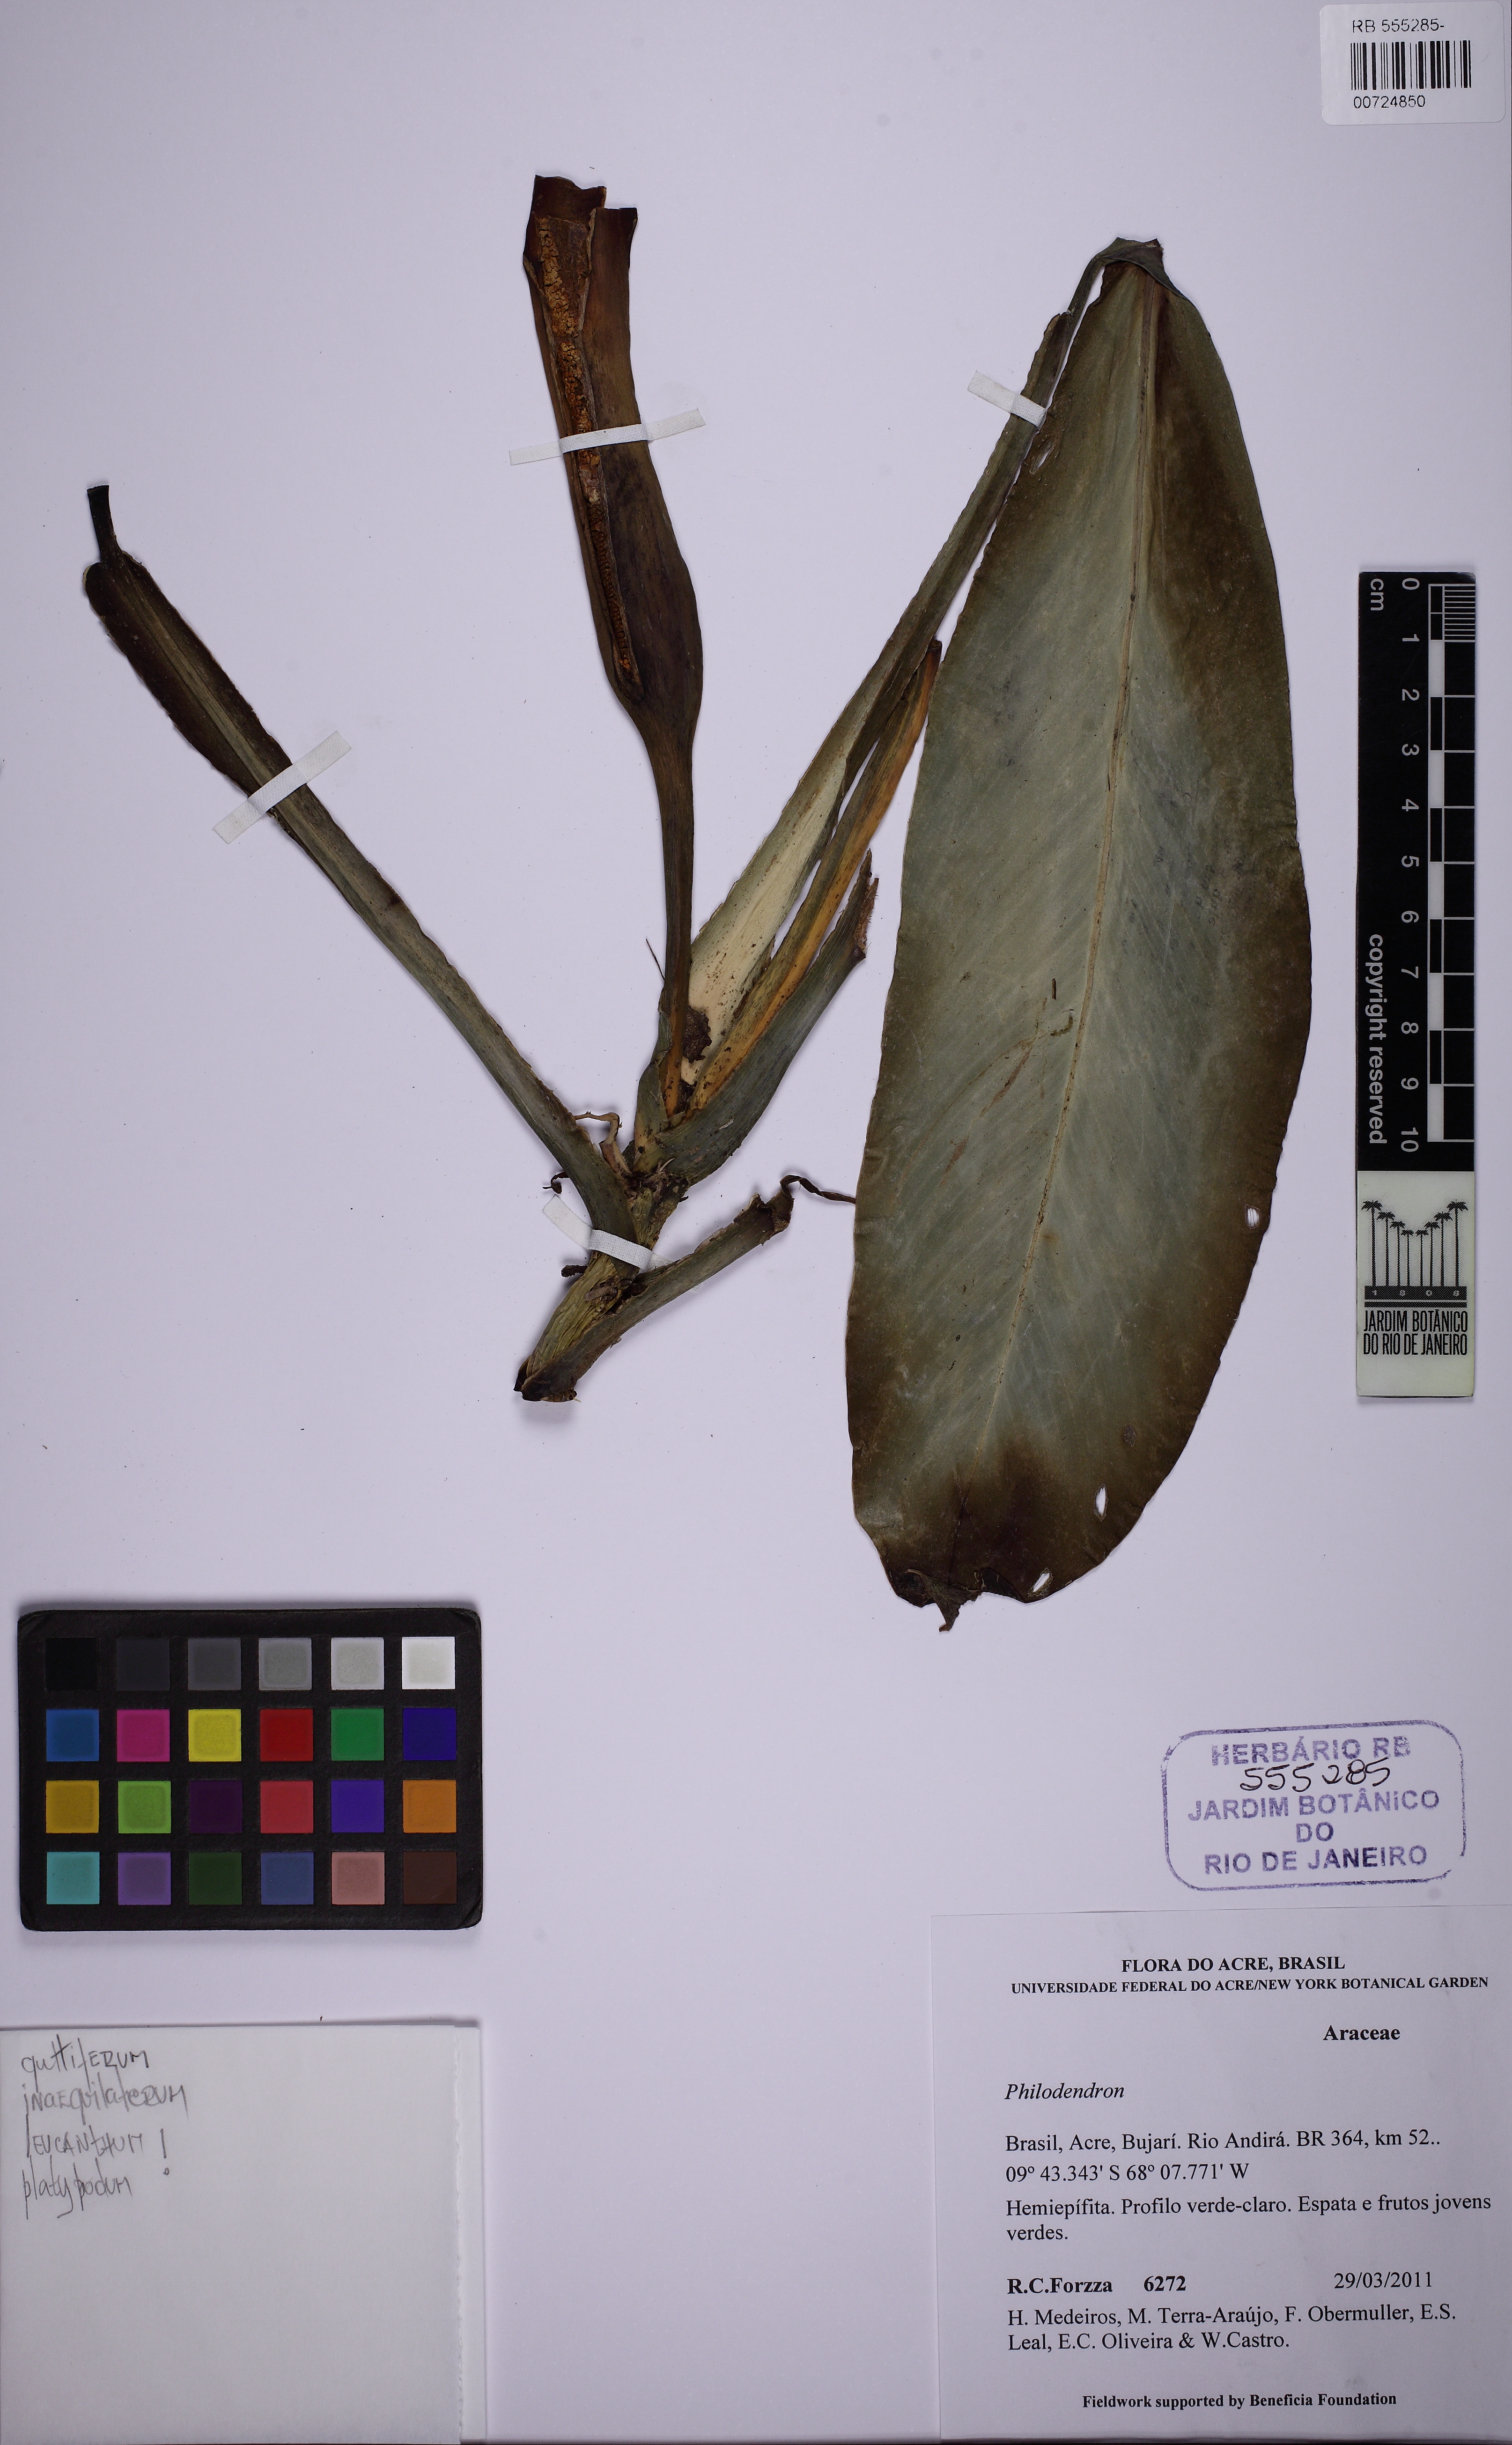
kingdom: Plantae
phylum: Tracheophyta
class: Liliopsida
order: Alismatales
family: Araceae
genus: Philodendron
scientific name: Philodendron
